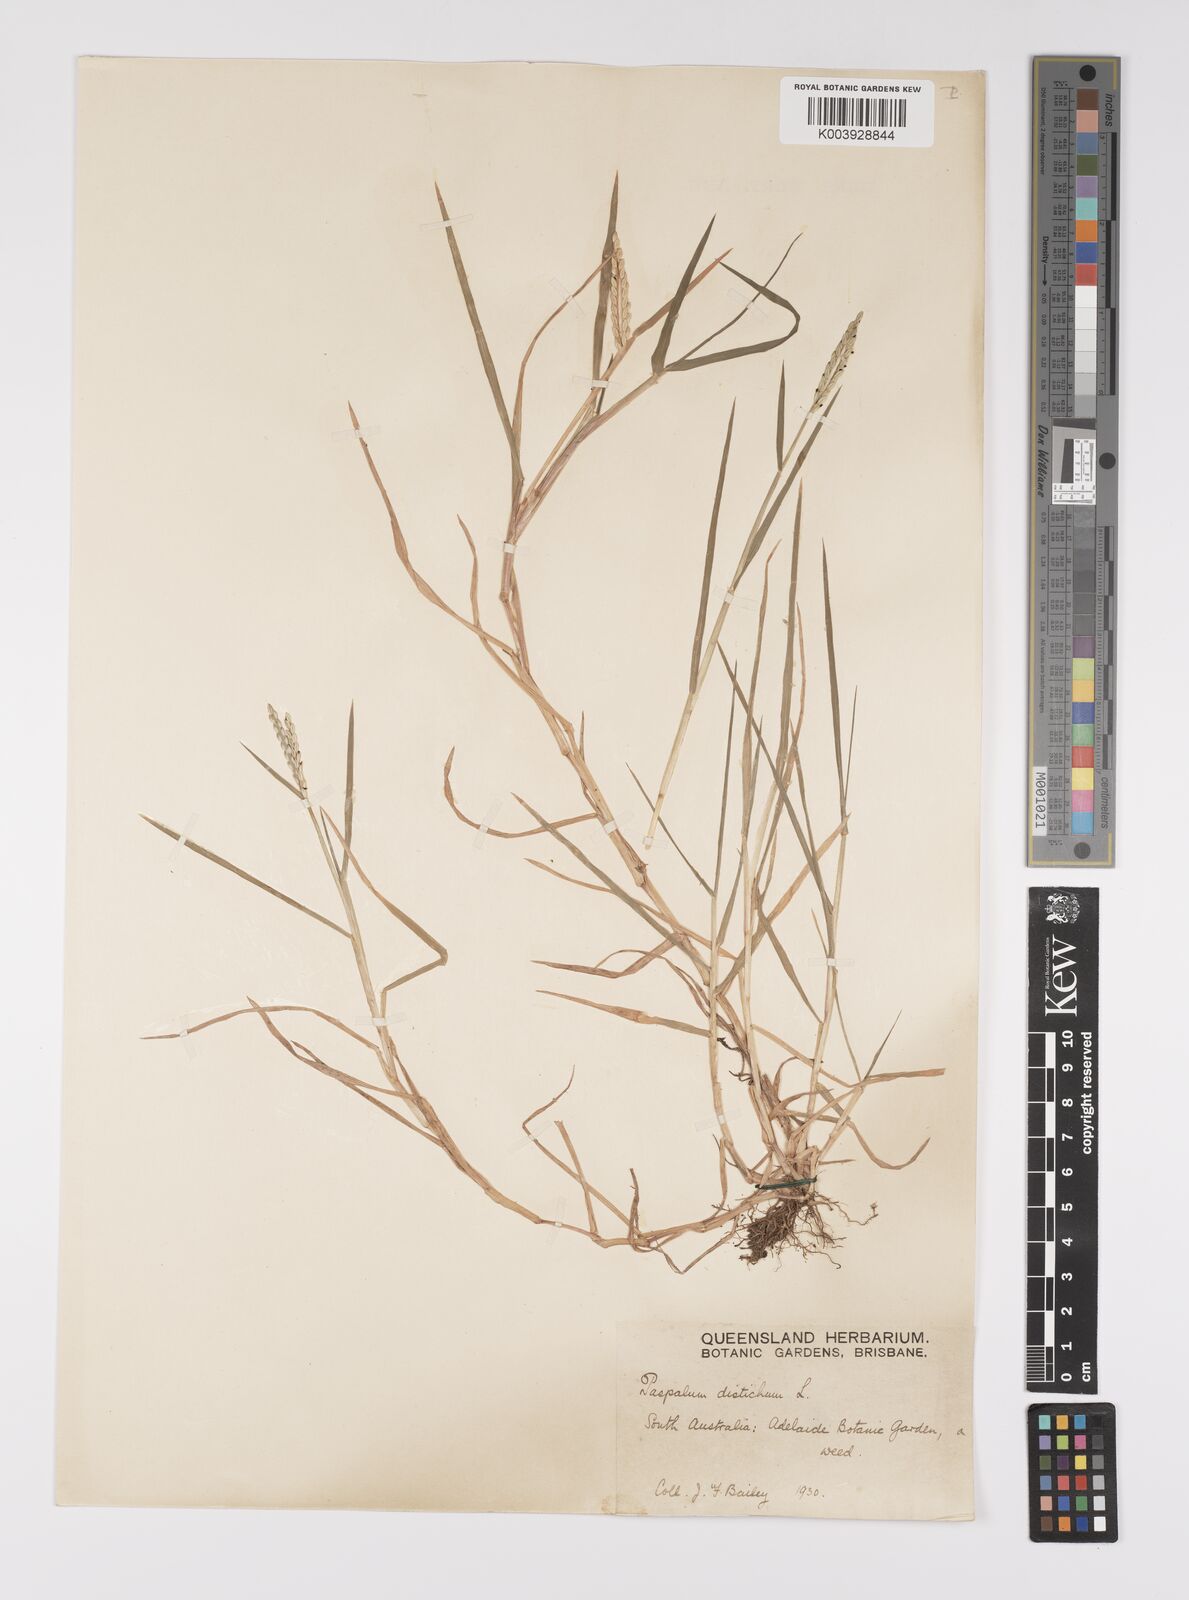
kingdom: Plantae
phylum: Tracheophyta
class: Liliopsida
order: Poales
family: Poaceae
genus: Paspalum
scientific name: Paspalum distichum
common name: Knotgrass
